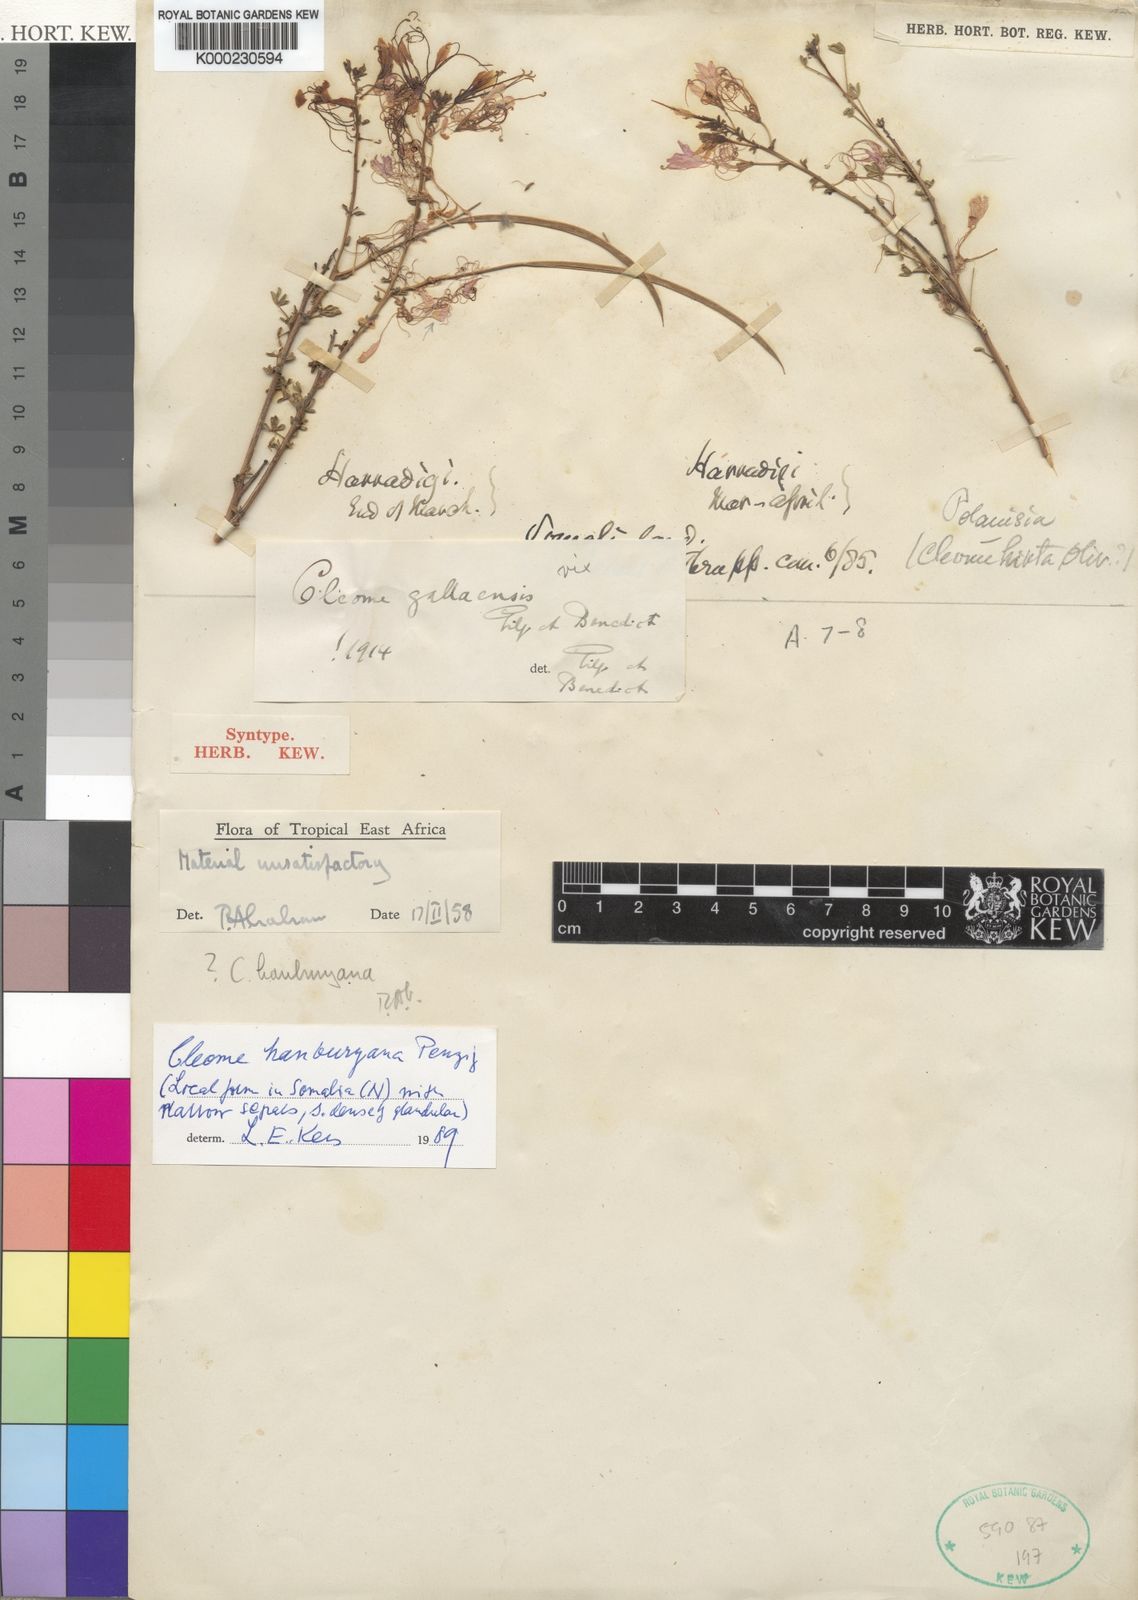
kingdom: Plantae
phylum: Tracheophyta
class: Magnoliopsida
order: Brassicales
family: Cleomaceae
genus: Sieruela
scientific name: Sieruela gallaensis
